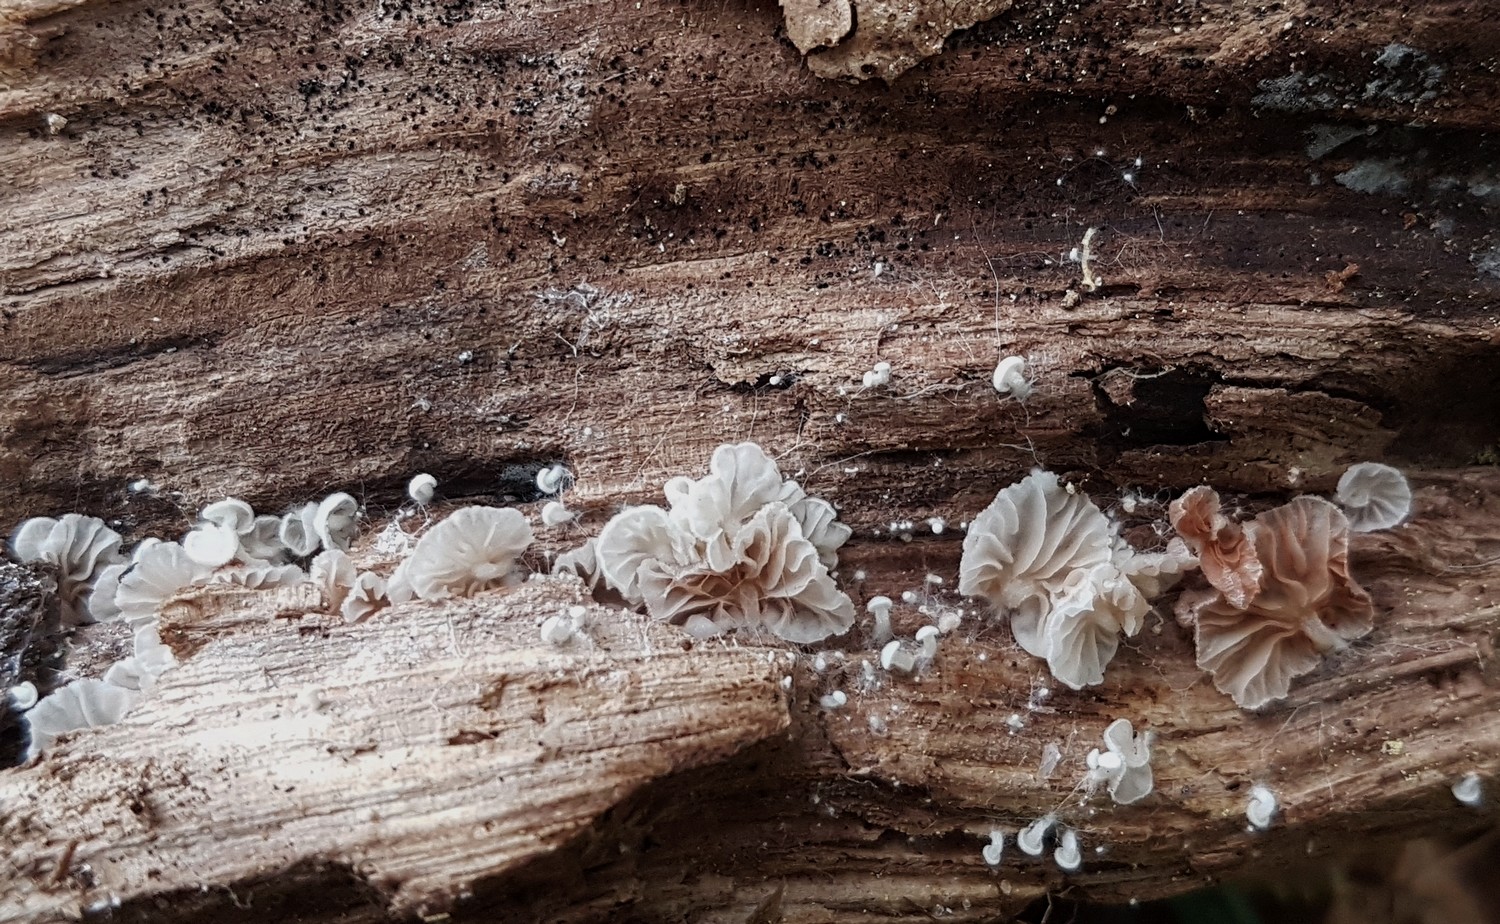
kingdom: Fungi
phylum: Basidiomycota
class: Agaricomycetes
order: Agaricales
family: Entolomataceae
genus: Entoloma
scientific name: Entoloma jahnii
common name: muslinge-rødblad
